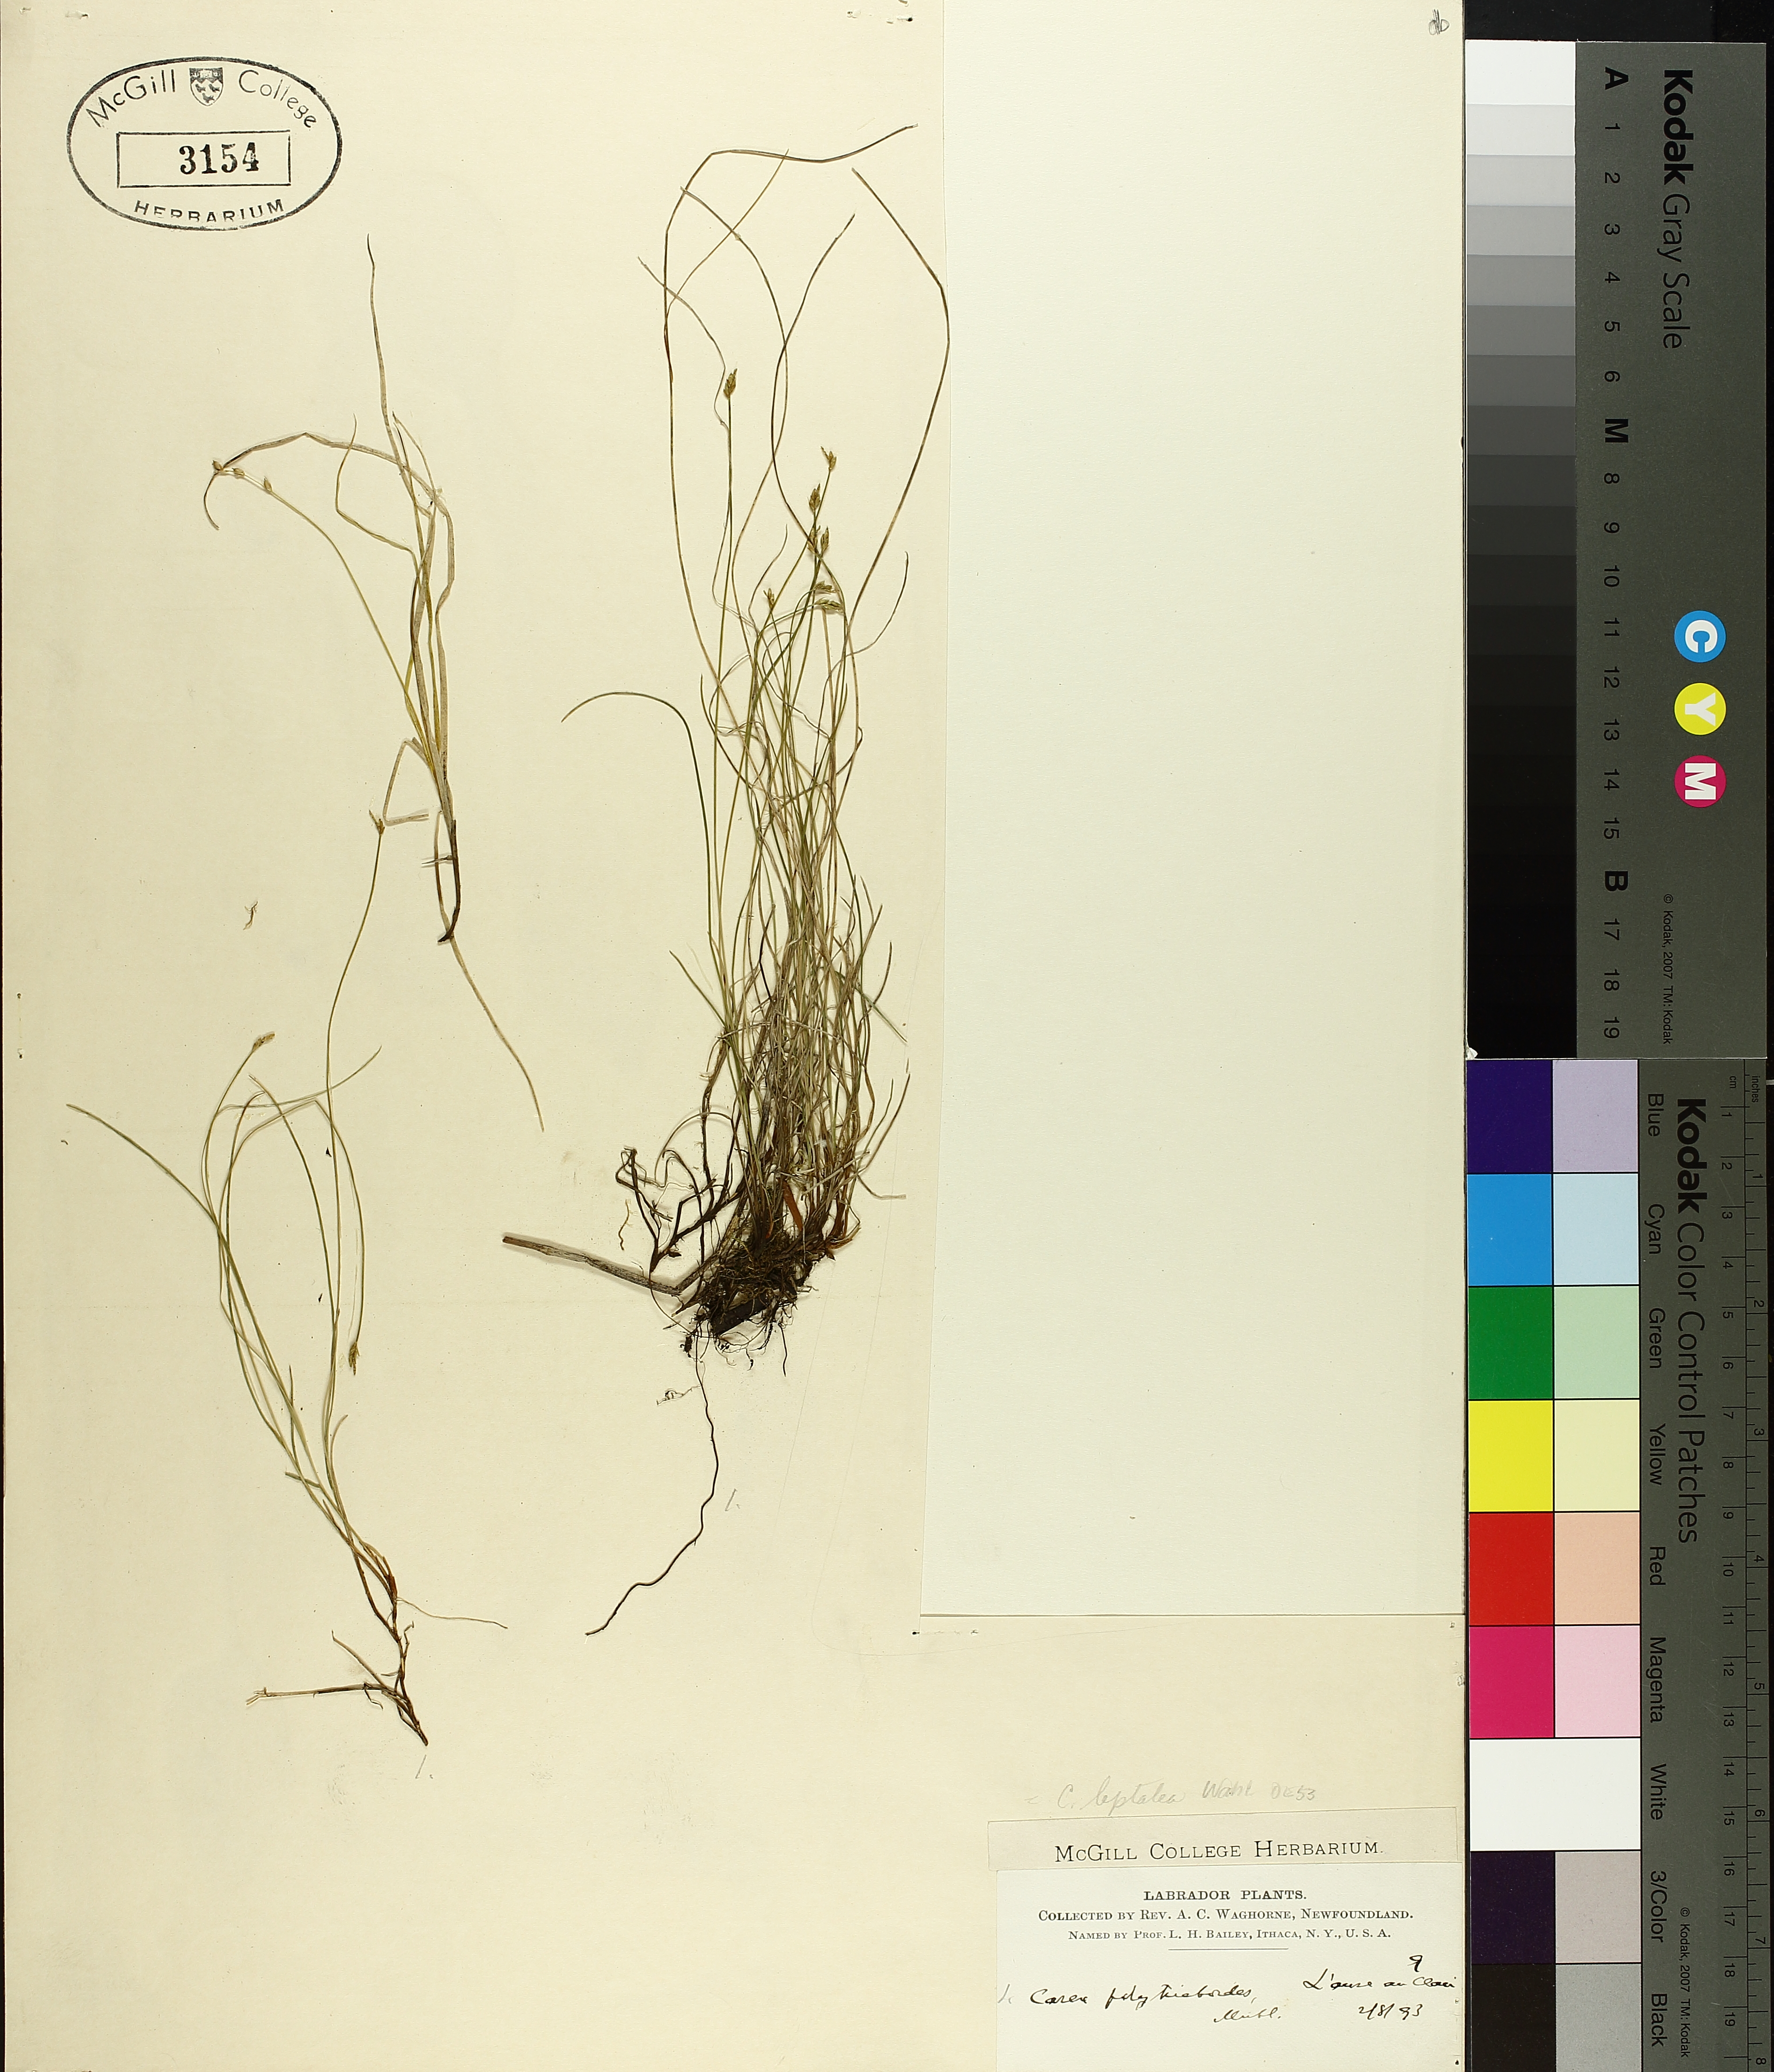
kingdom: Plantae
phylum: Tracheophyta
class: Liliopsida
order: Poales
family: Cyperaceae
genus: Carex
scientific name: Carex leptalea
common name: Bristly-stalked sedge
